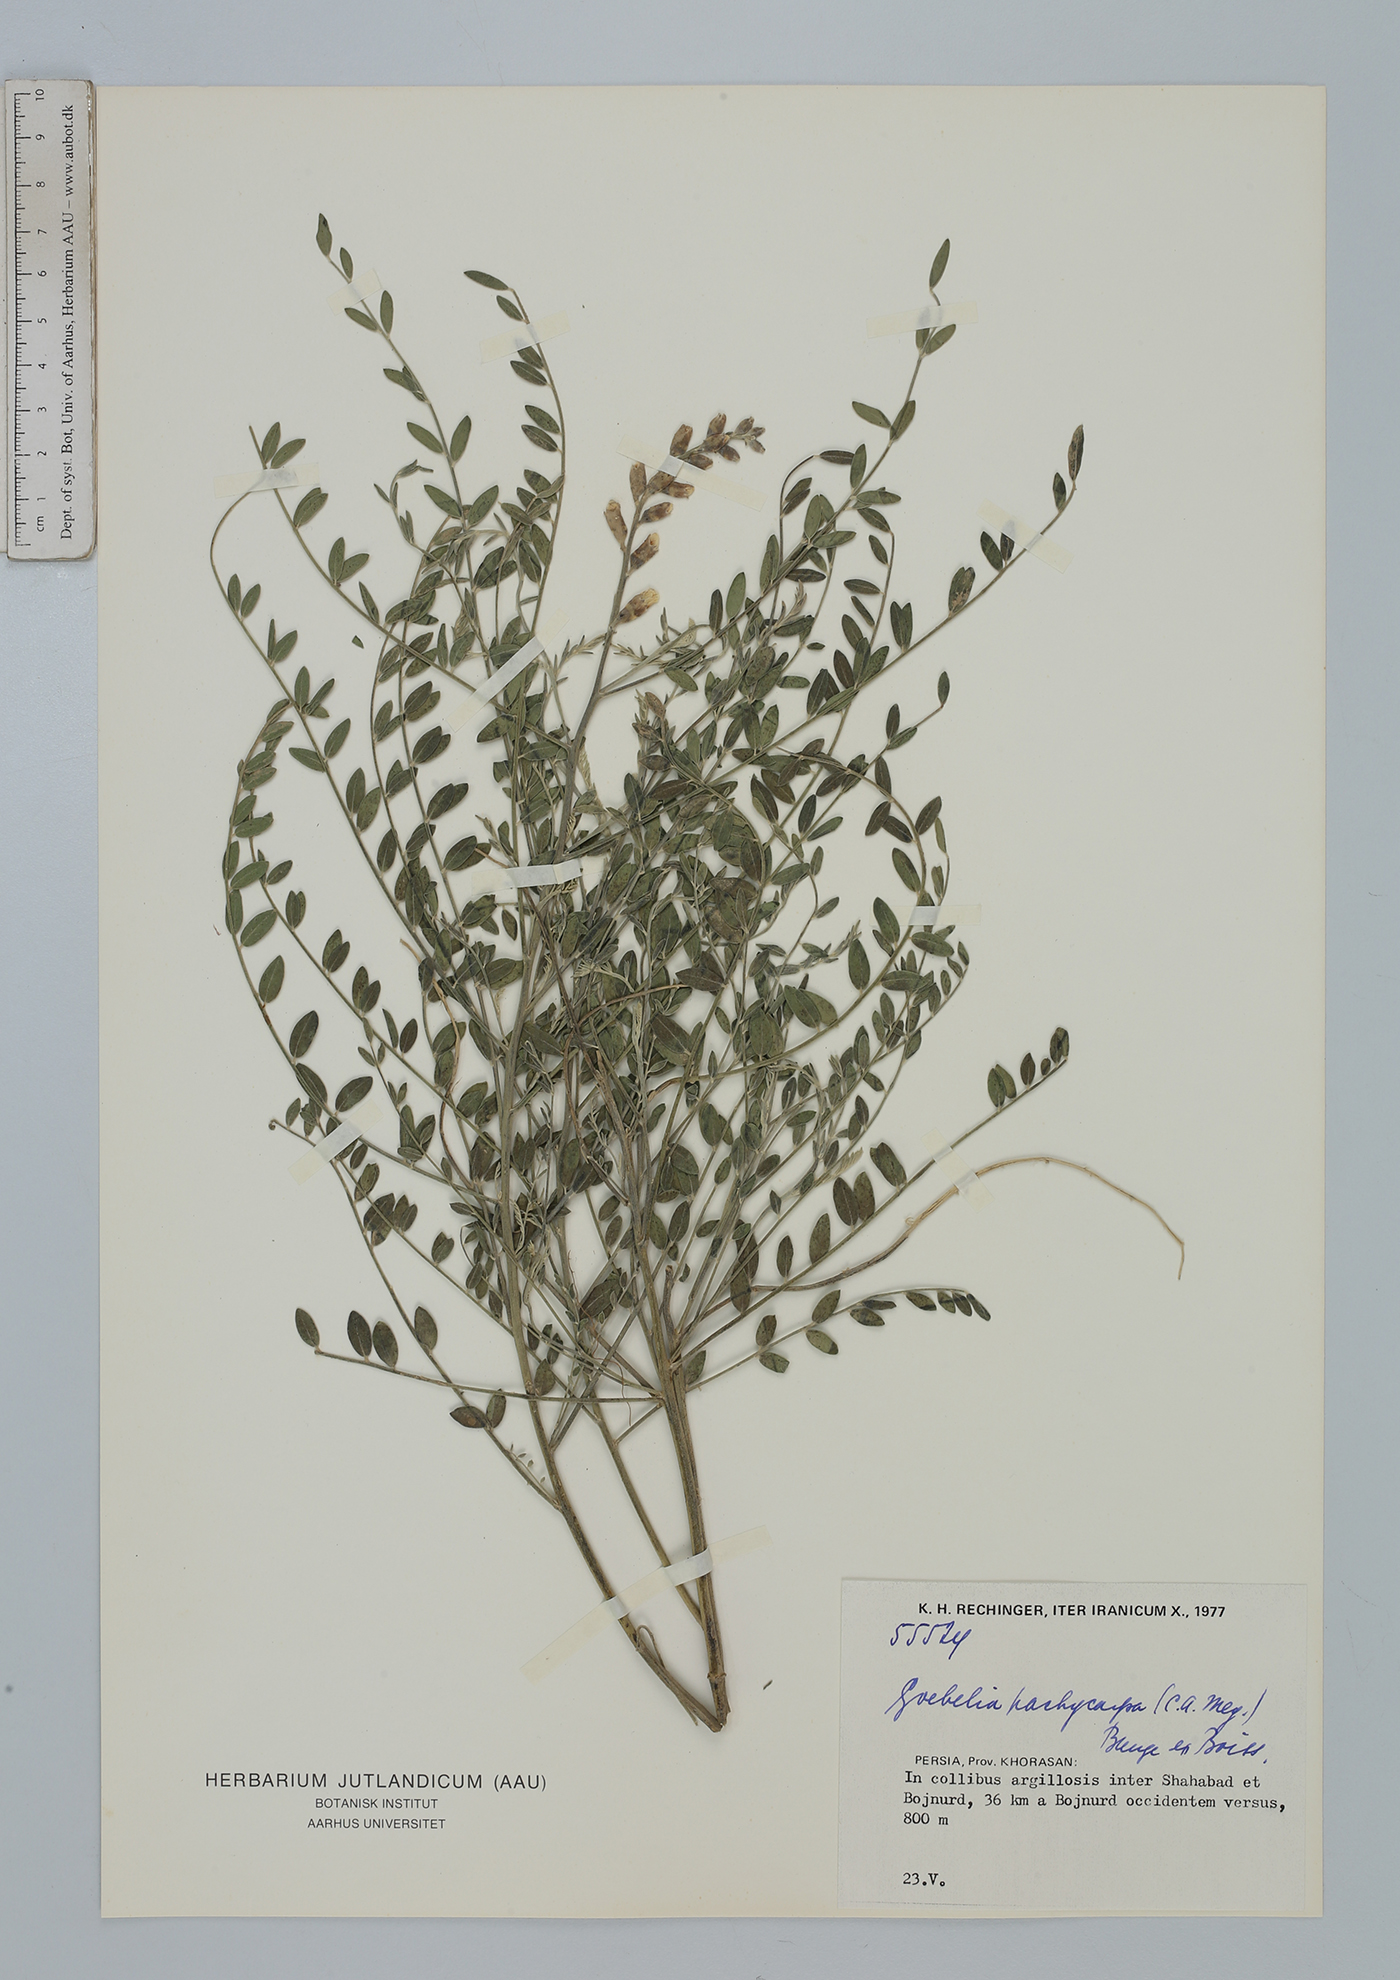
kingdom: Plantae
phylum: Tracheophyta
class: Magnoliopsida
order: Fabales
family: Fabaceae
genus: Sophora
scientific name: Sophora pachycarpa
